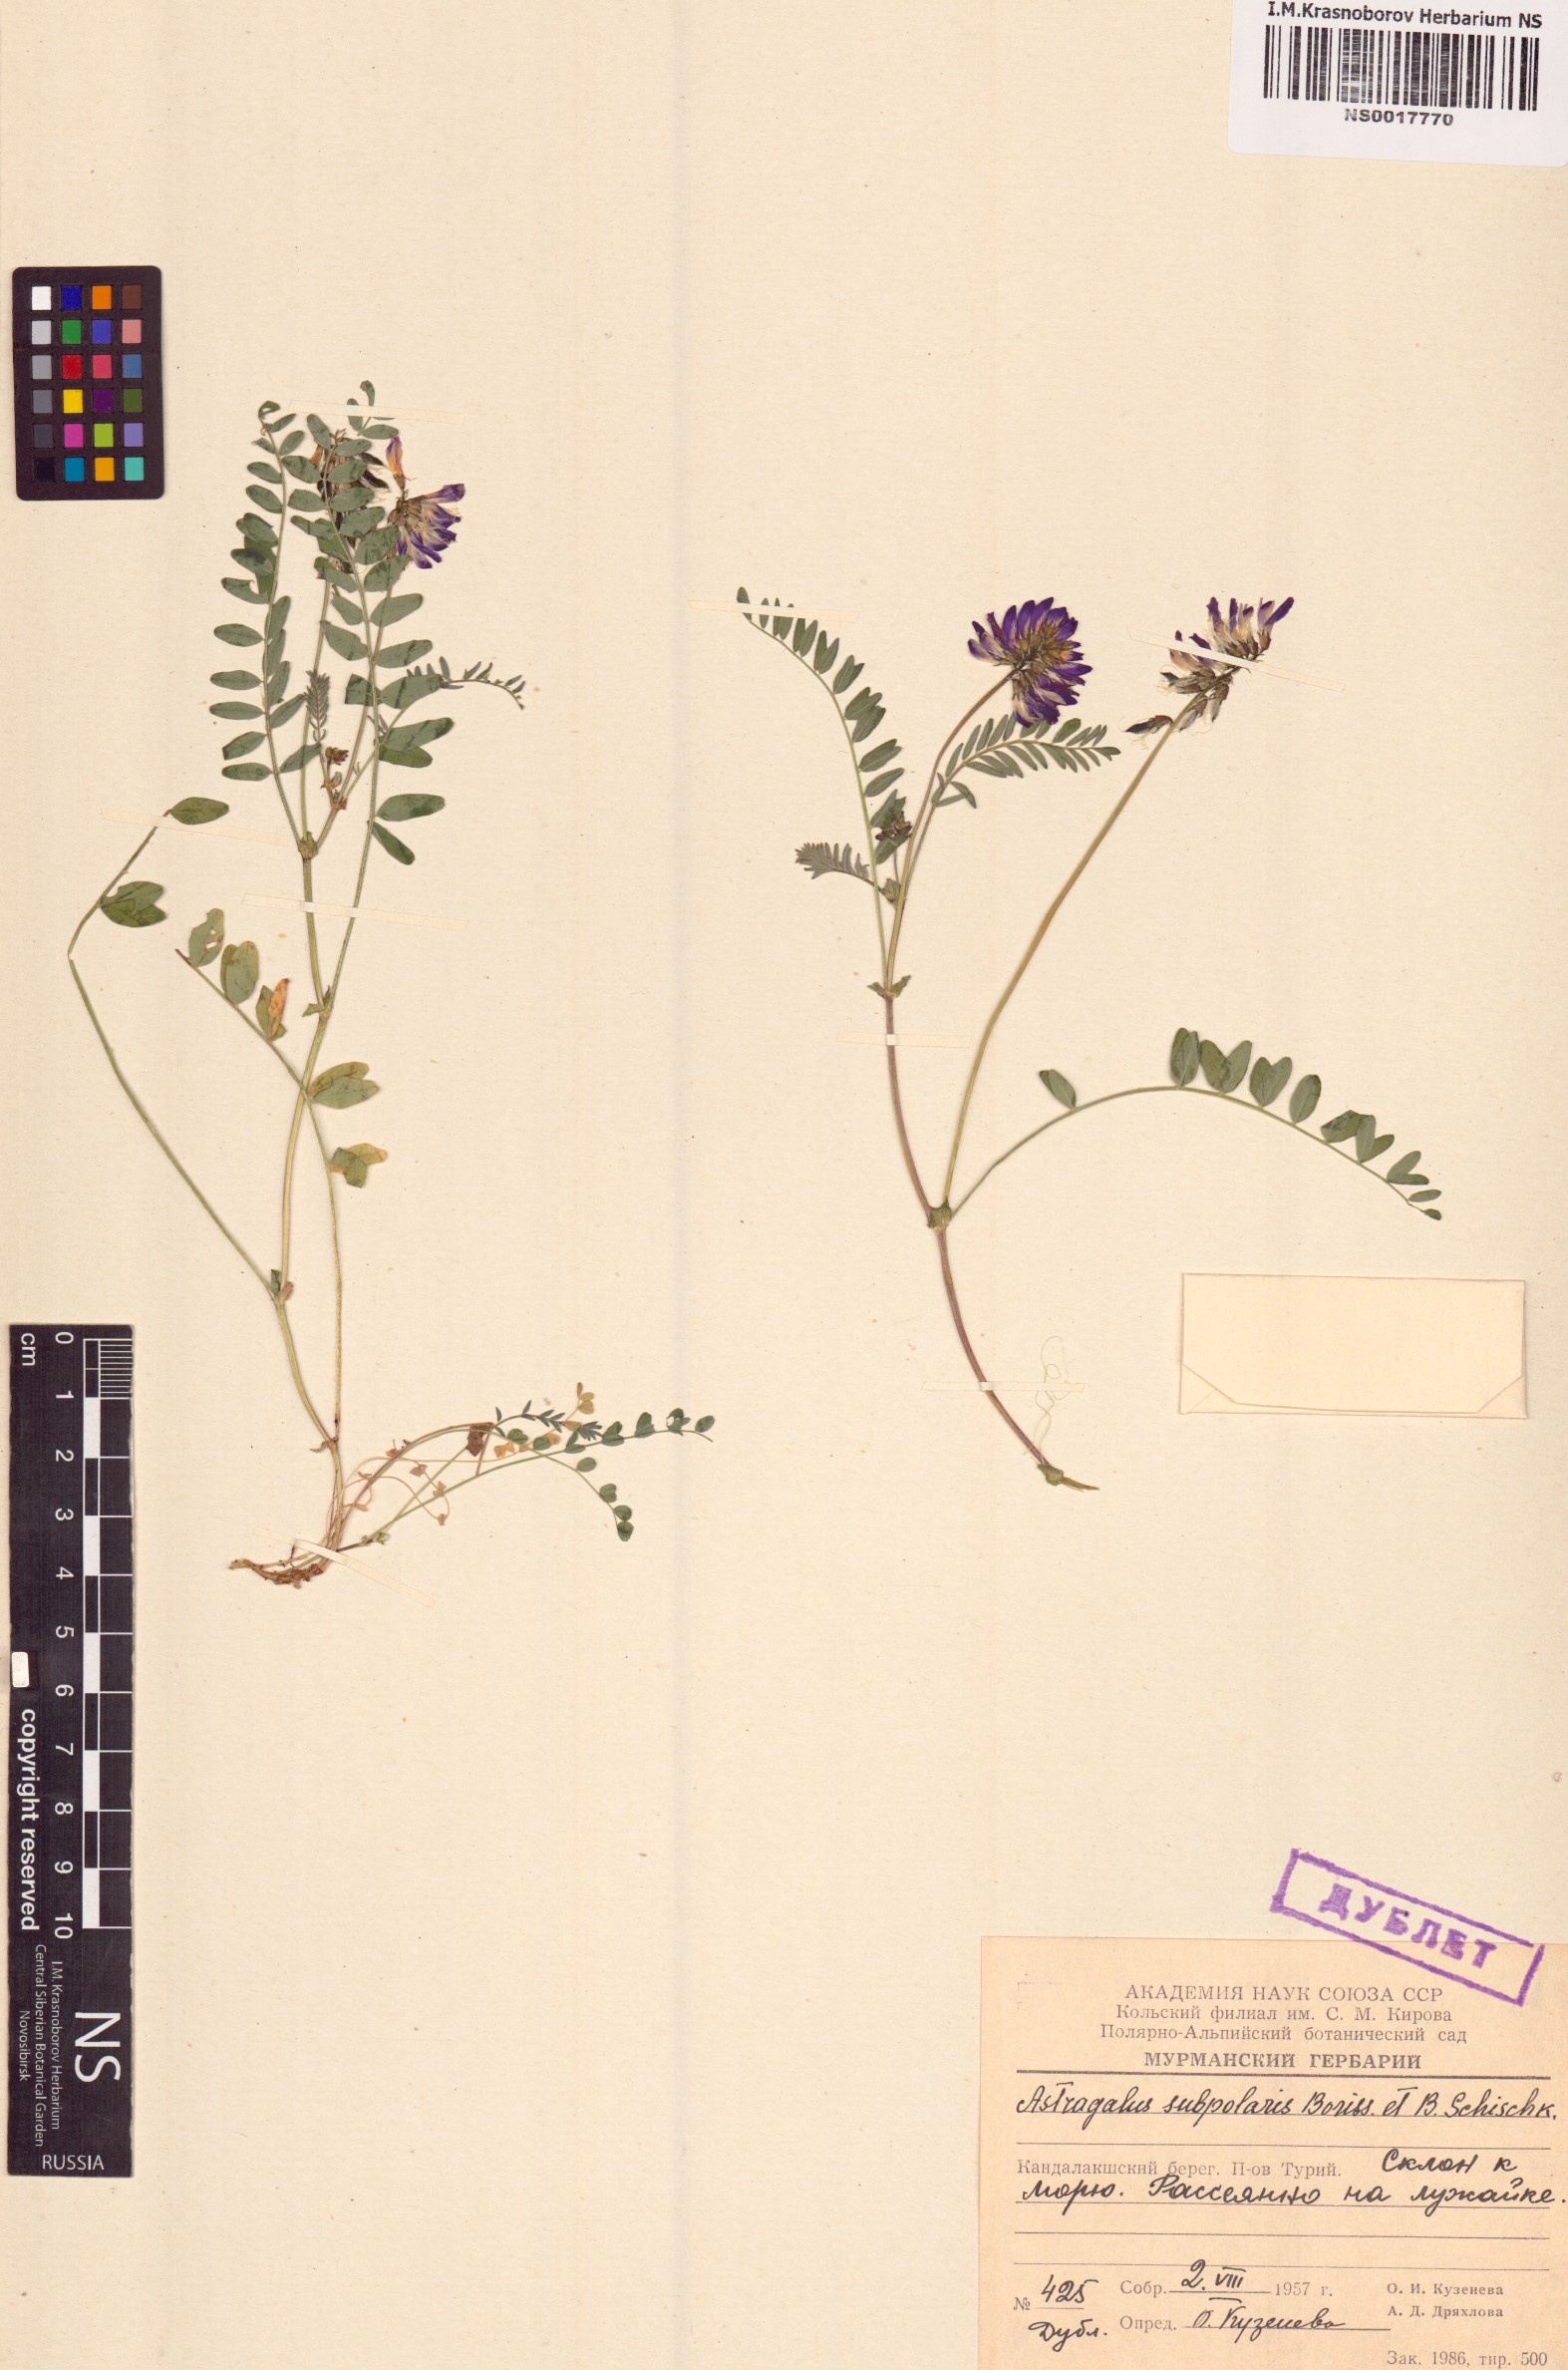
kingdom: Plantae
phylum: Tracheophyta
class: Magnoliopsida
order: Fabales
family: Fabaceae
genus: Astragalus
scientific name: Astragalus norvegicus
